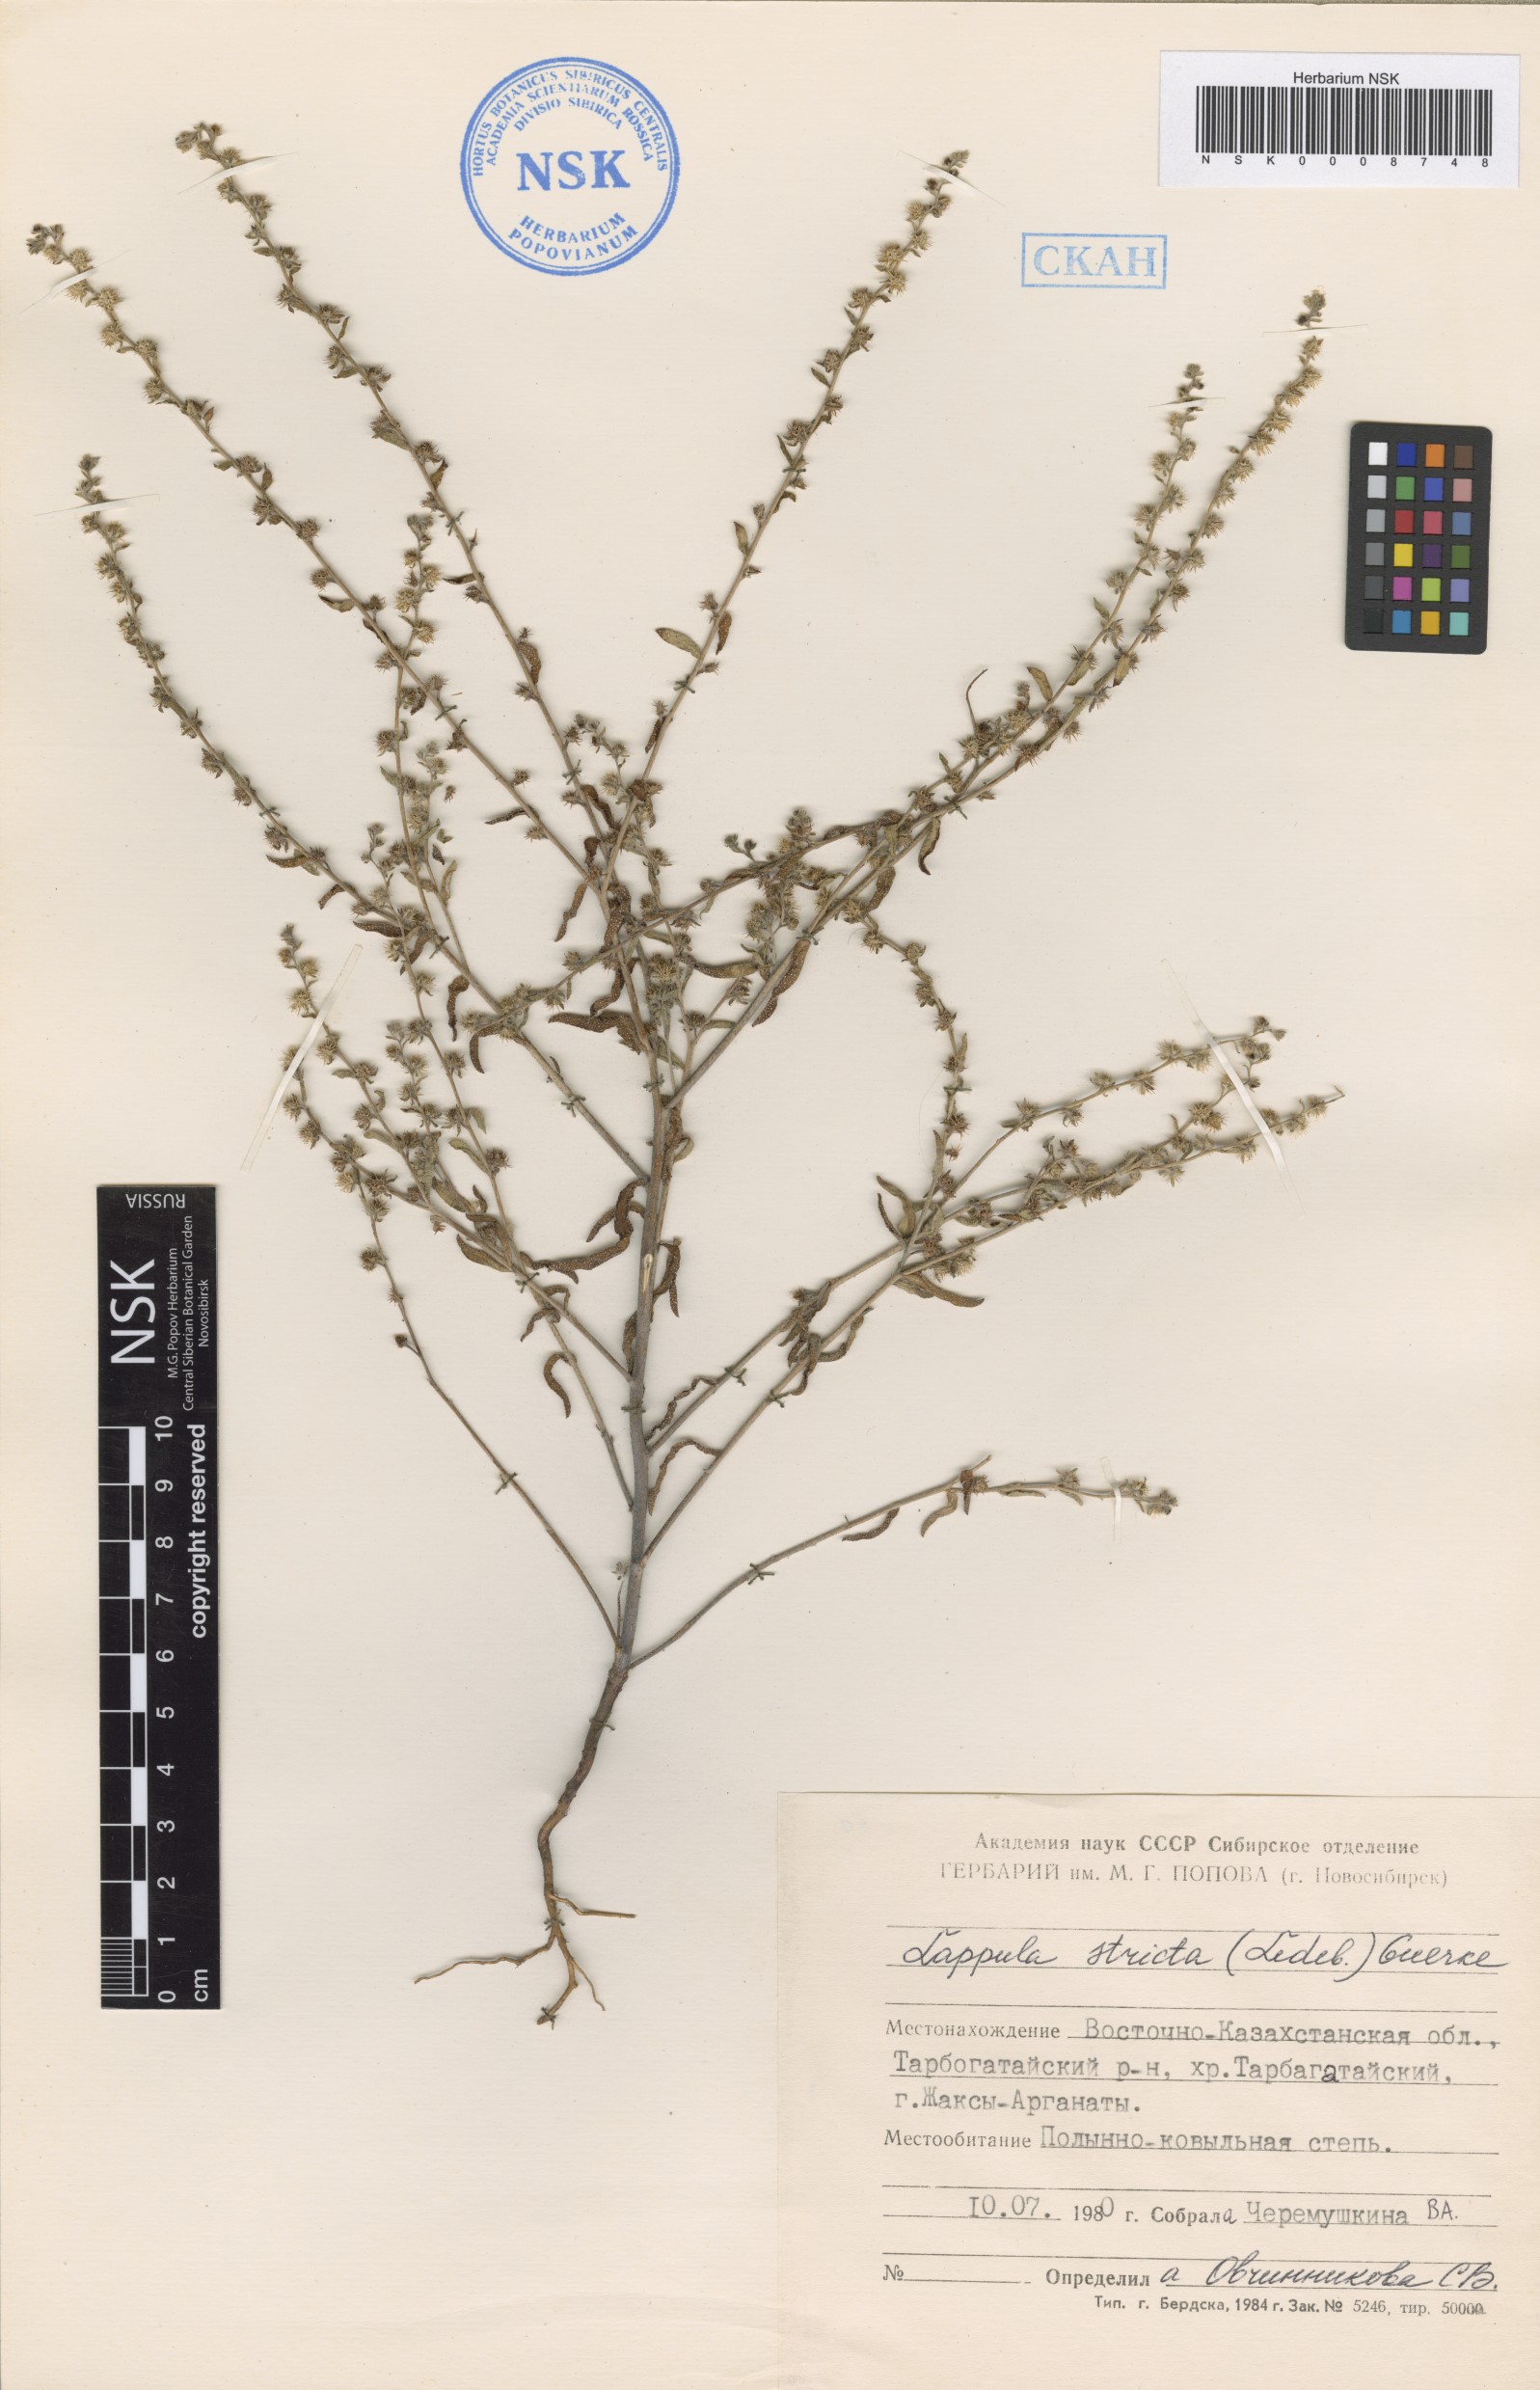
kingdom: Plantae
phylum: Tracheophyta
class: Magnoliopsida
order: Boraginales
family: Boraginaceae
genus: Lappula
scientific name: Lappula stricta
